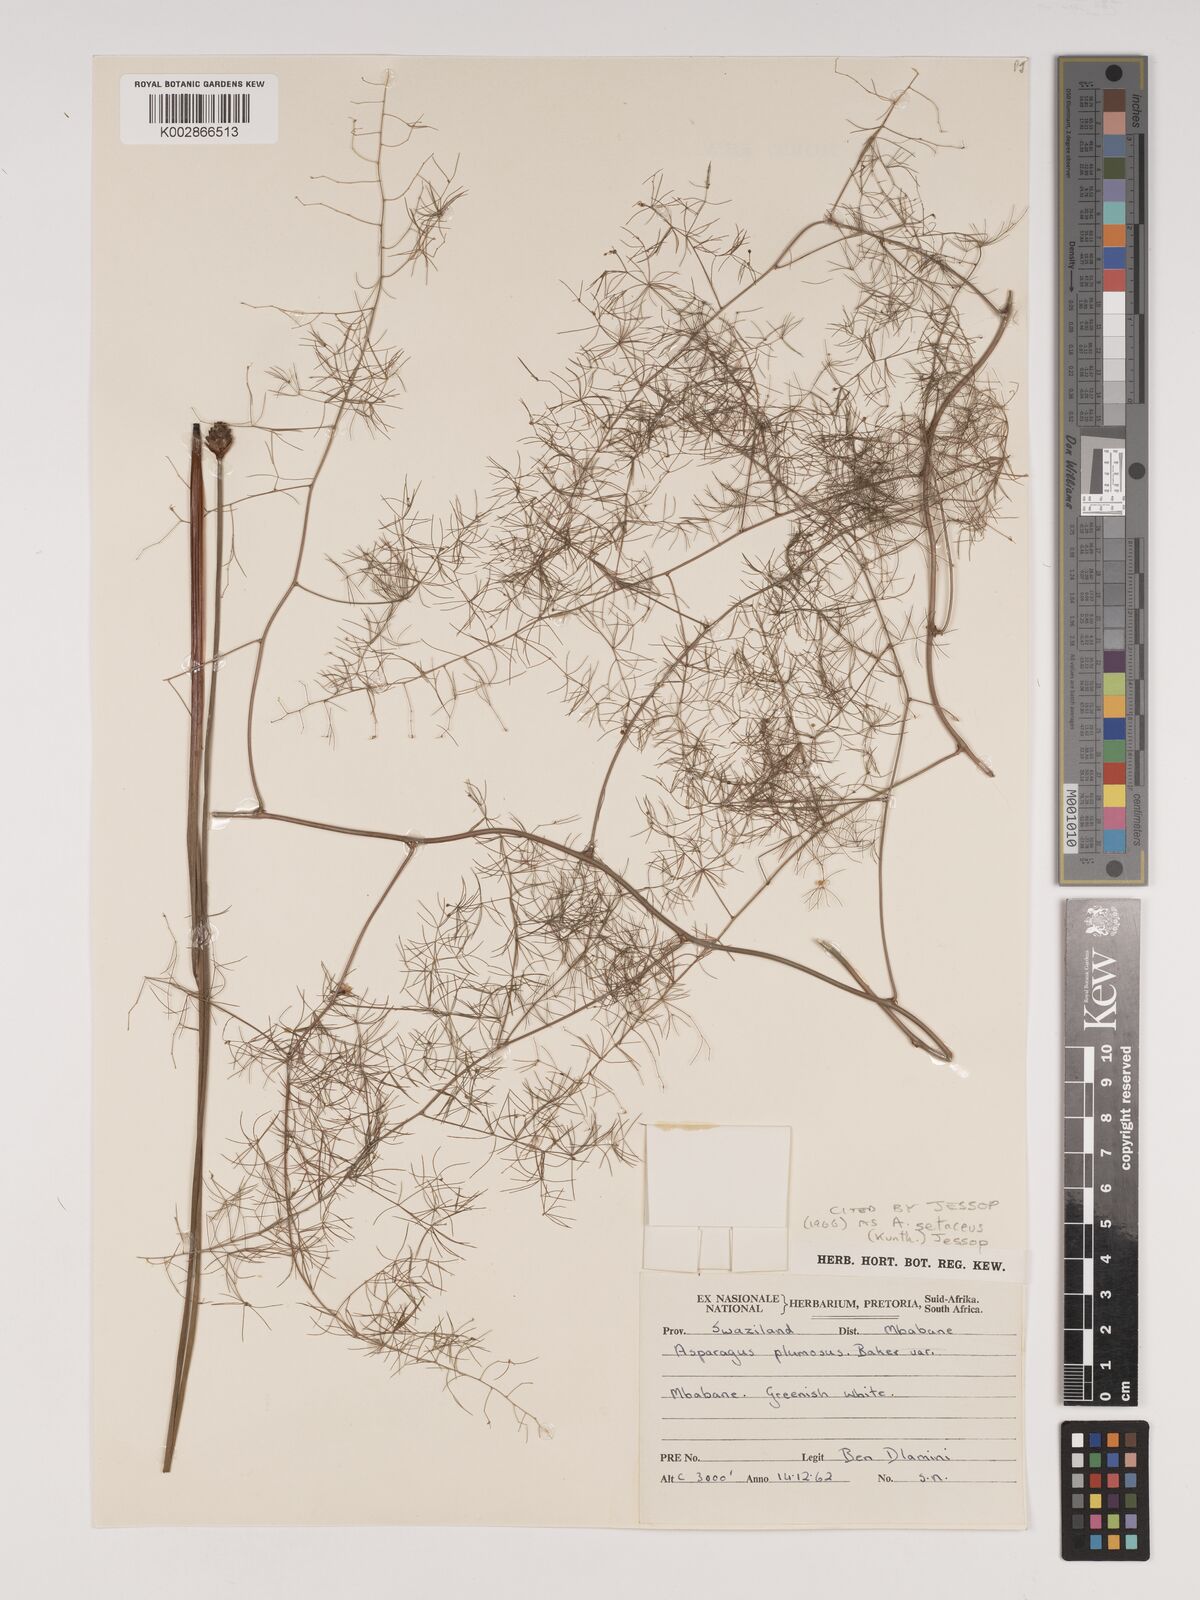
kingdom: Plantae
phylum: Tracheophyta
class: Liliopsida
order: Asparagales
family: Asparagaceae
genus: Asparagus
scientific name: Asparagus setaceus
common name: Common asparagus fern
